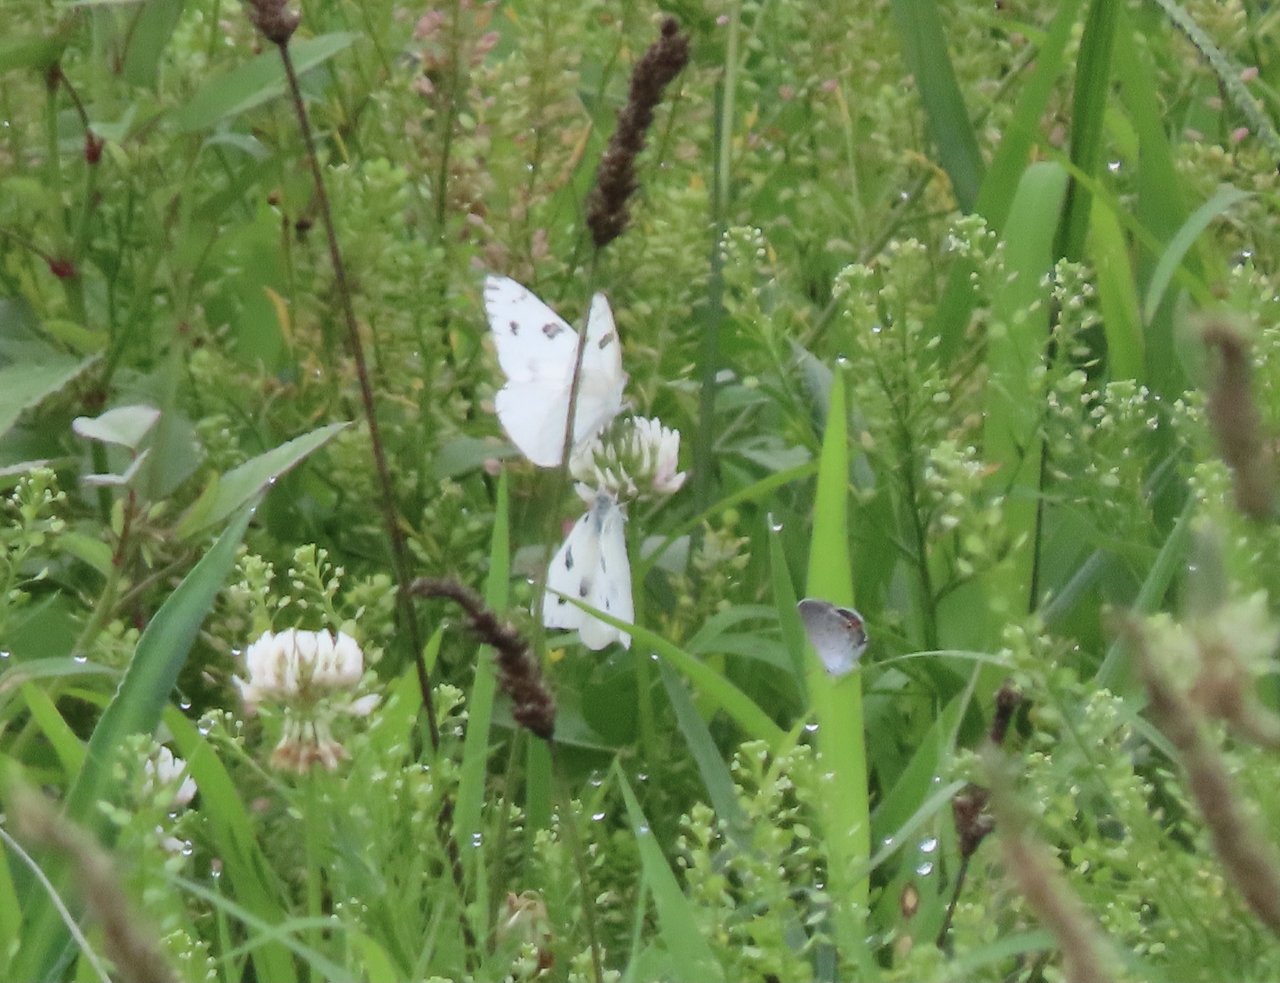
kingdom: Animalia
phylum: Arthropoda
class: Insecta
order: Lepidoptera
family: Pieridae
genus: Pontia
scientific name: Pontia protodice
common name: Checkered White
